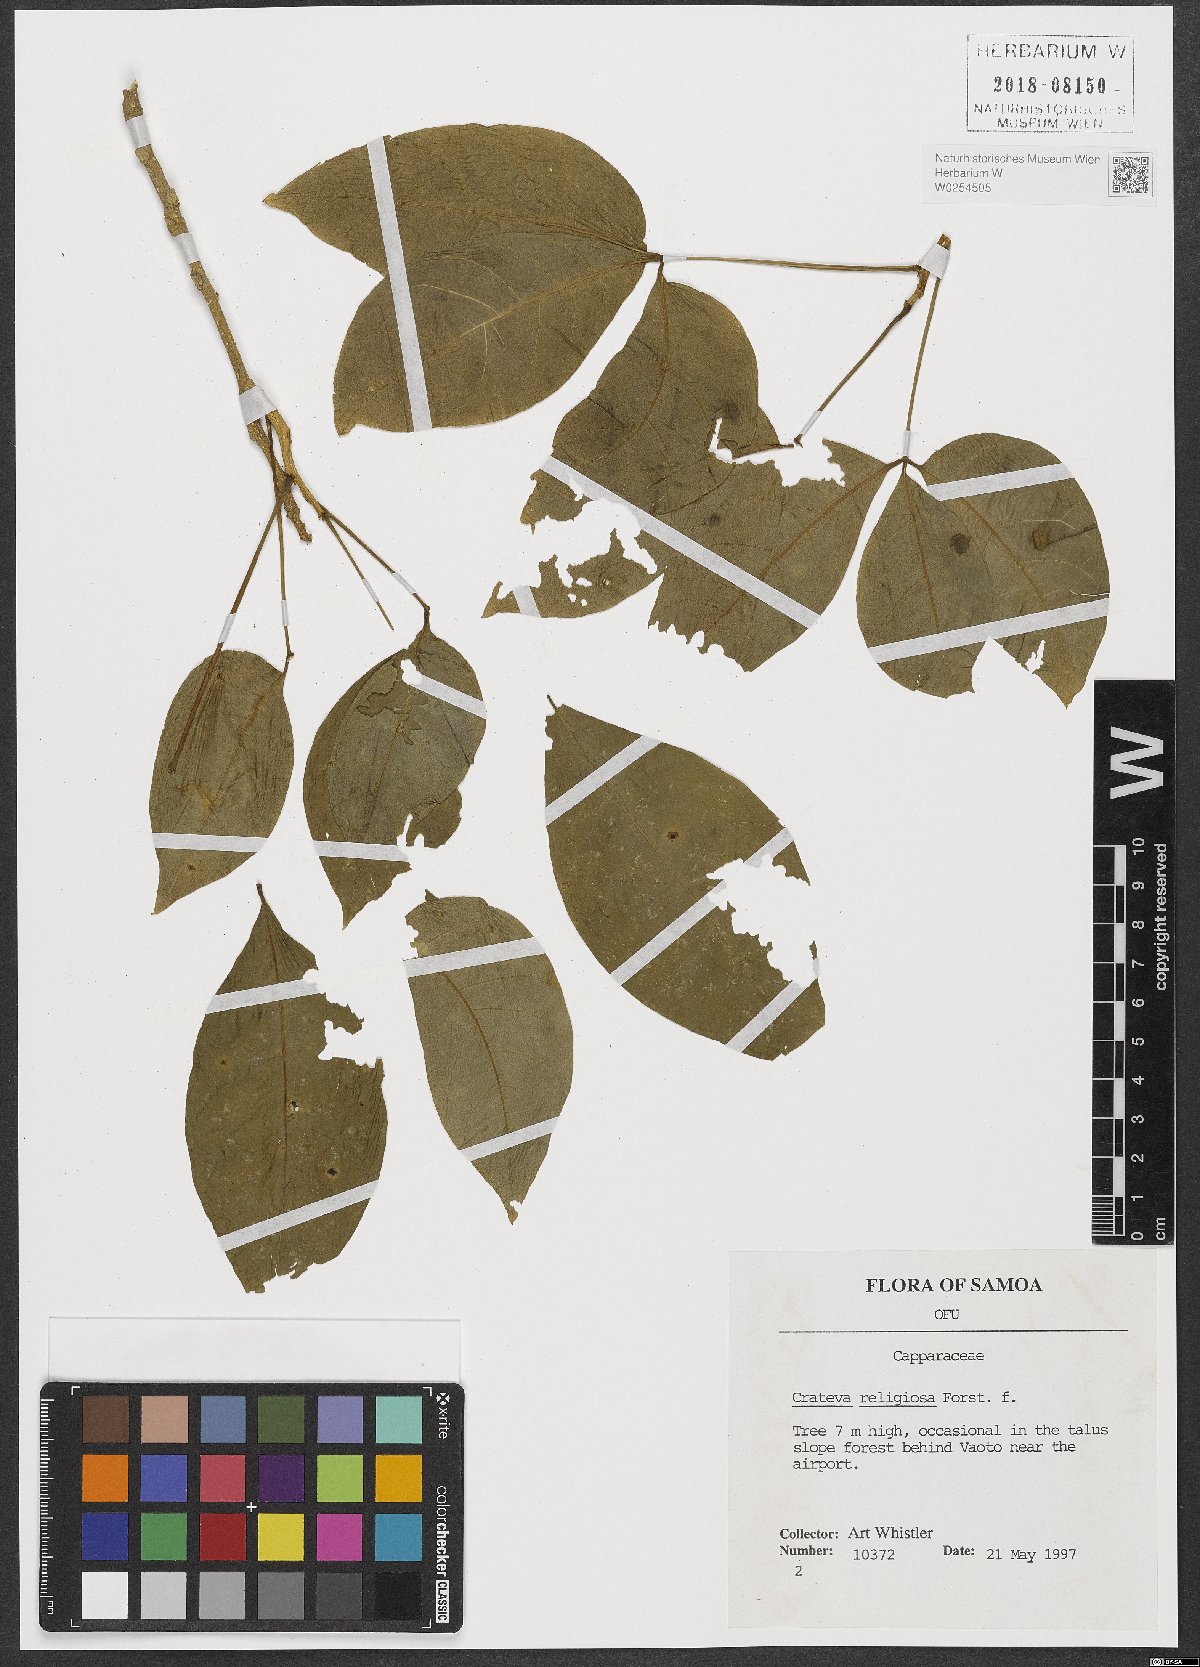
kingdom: Plantae
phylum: Tracheophyta
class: Magnoliopsida
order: Brassicales
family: Capparaceae
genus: Crateva
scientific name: Crateva religiosa
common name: March dalur
